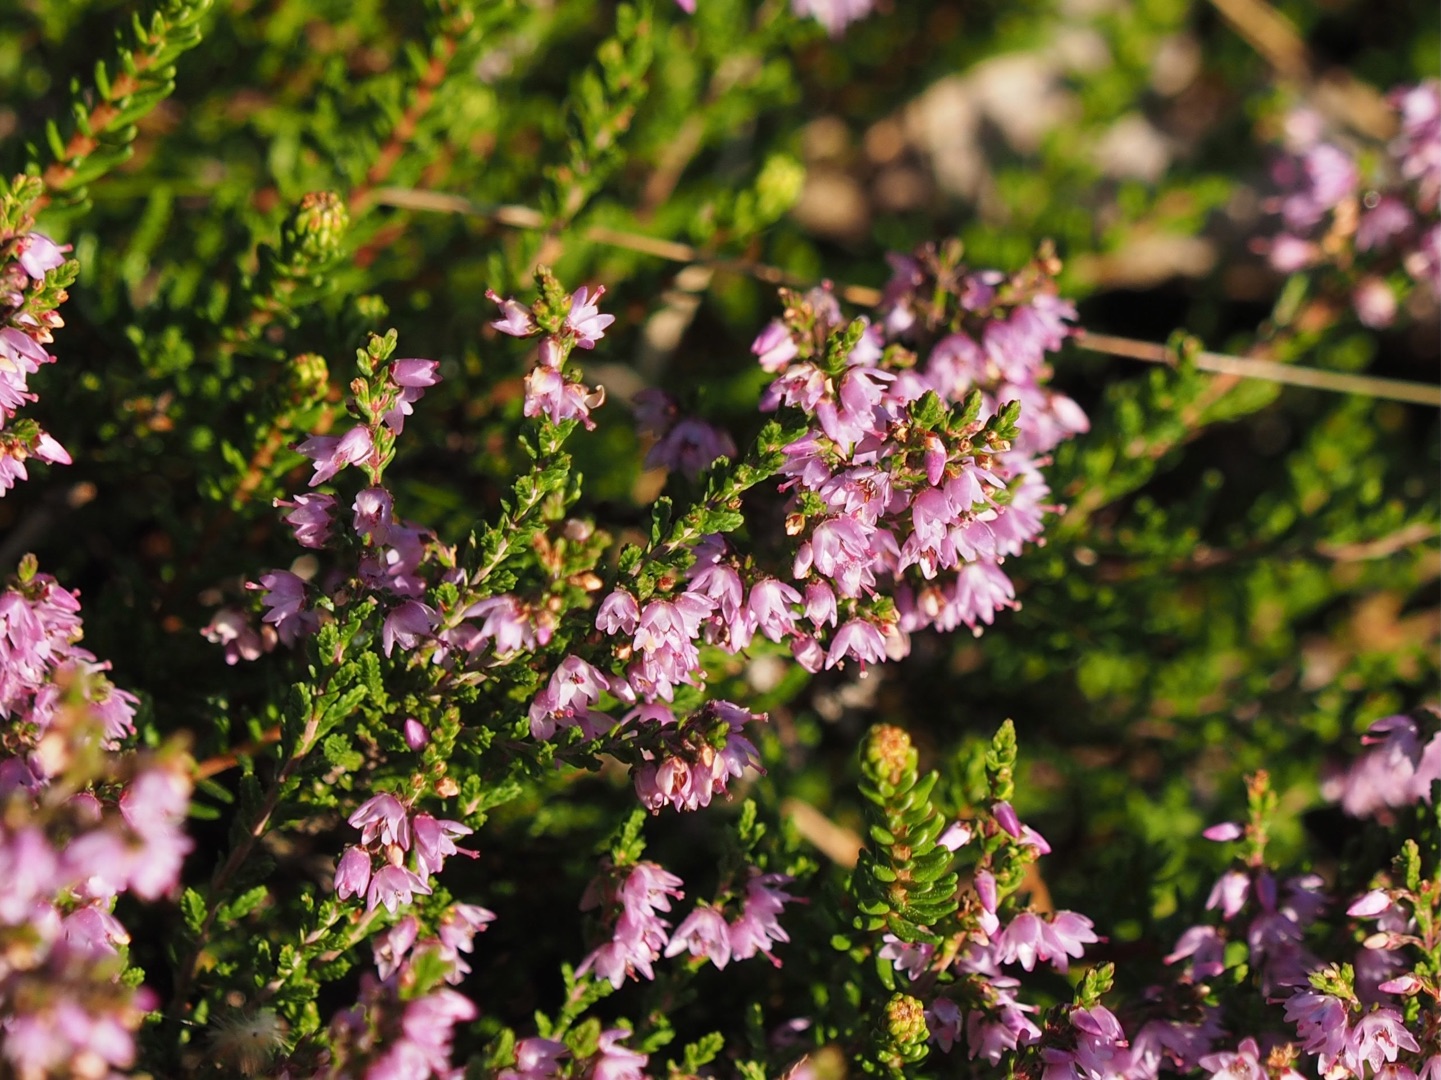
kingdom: Plantae
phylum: Tracheophyta
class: Magnoliopsida
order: Ericales
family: Ericaceae
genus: Calluna
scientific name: Calluna vulgaris
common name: Hedelyng
